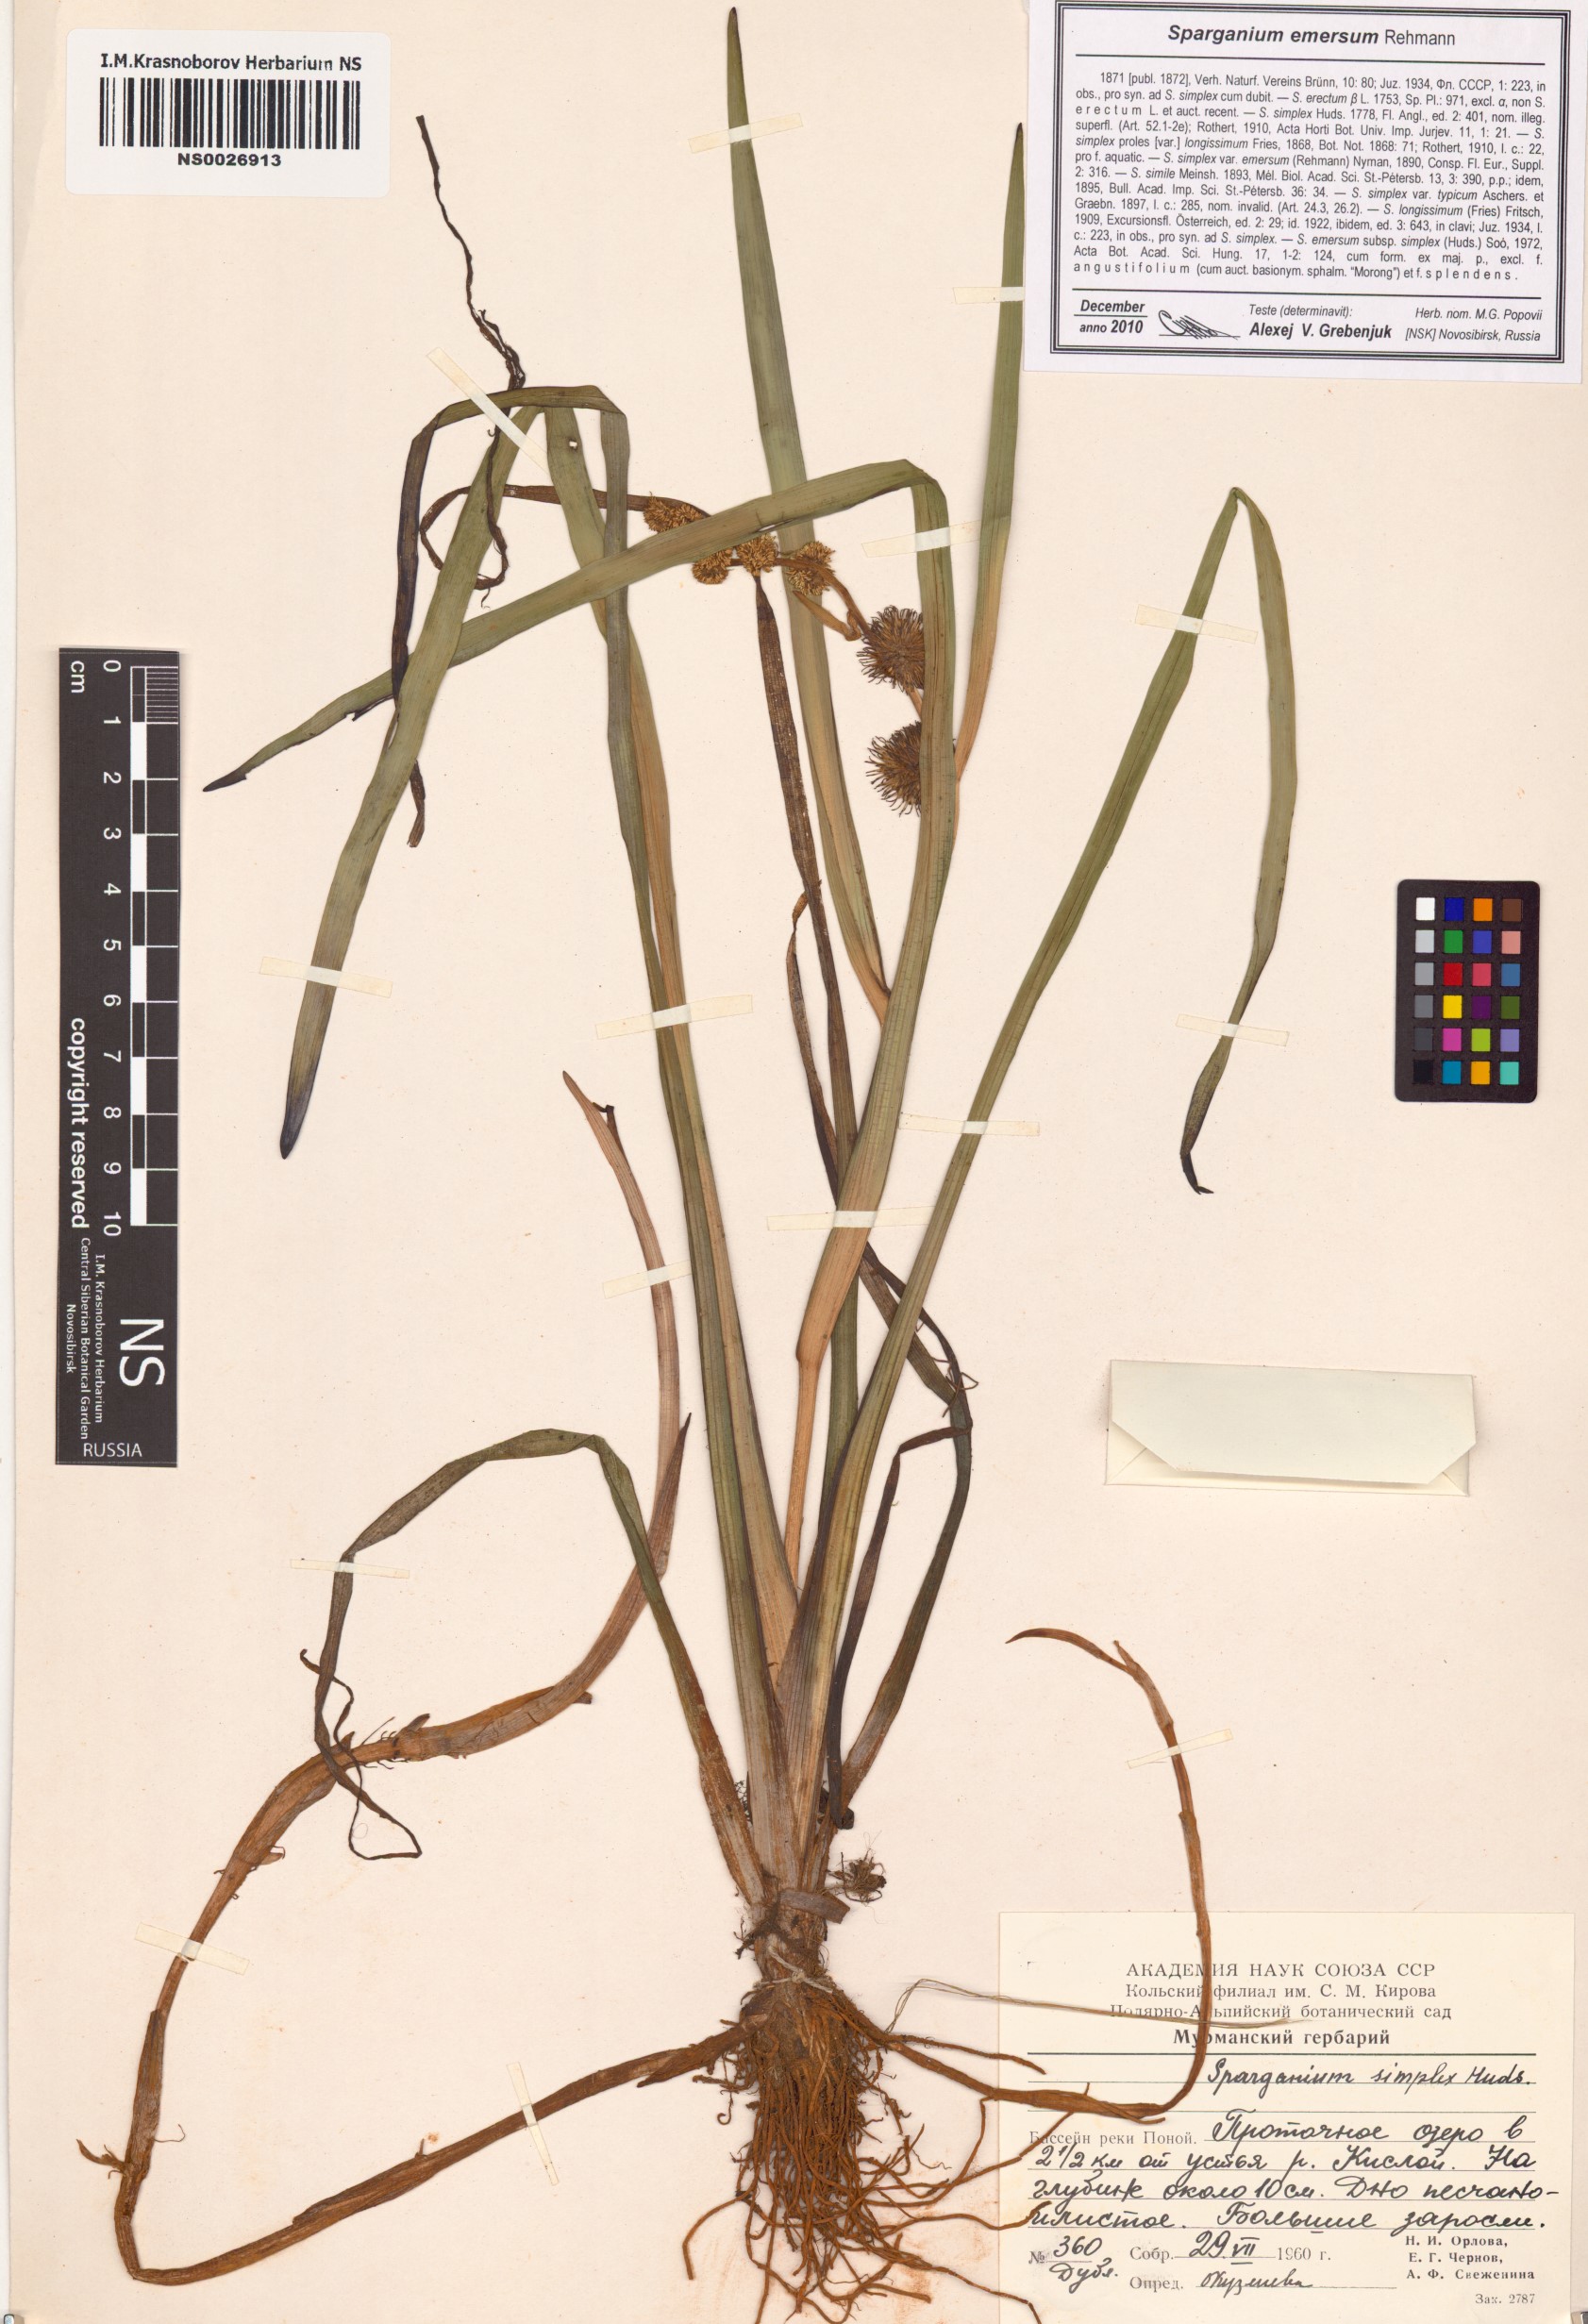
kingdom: Plantae
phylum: Tracheophyta
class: Liliopsida
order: Poales
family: Typhaceae
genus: Sparganium
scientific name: Sparganium emersum
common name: Unbranched bur-reed
